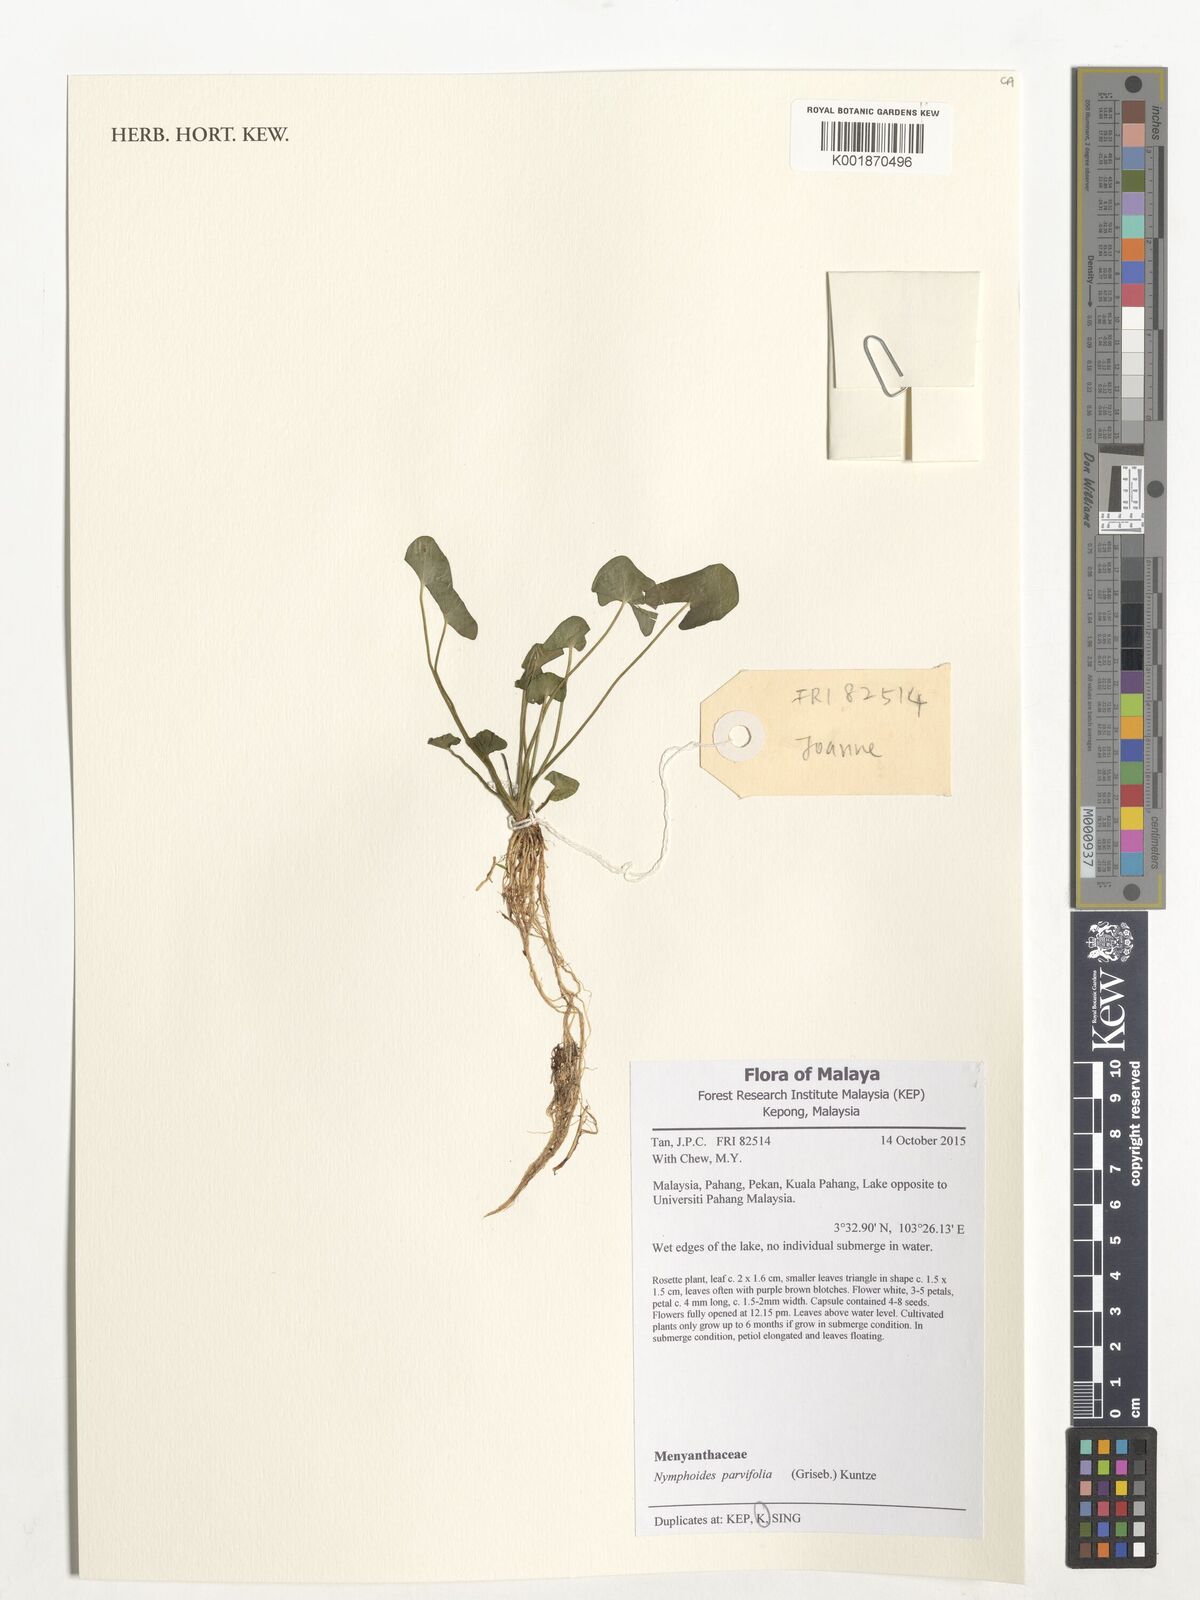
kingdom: Plantae
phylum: Tracheophyta
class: Magnoliopsida
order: Asterales
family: Menyanthaceae
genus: Nymphoides
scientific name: Nymphoides parvifolia
